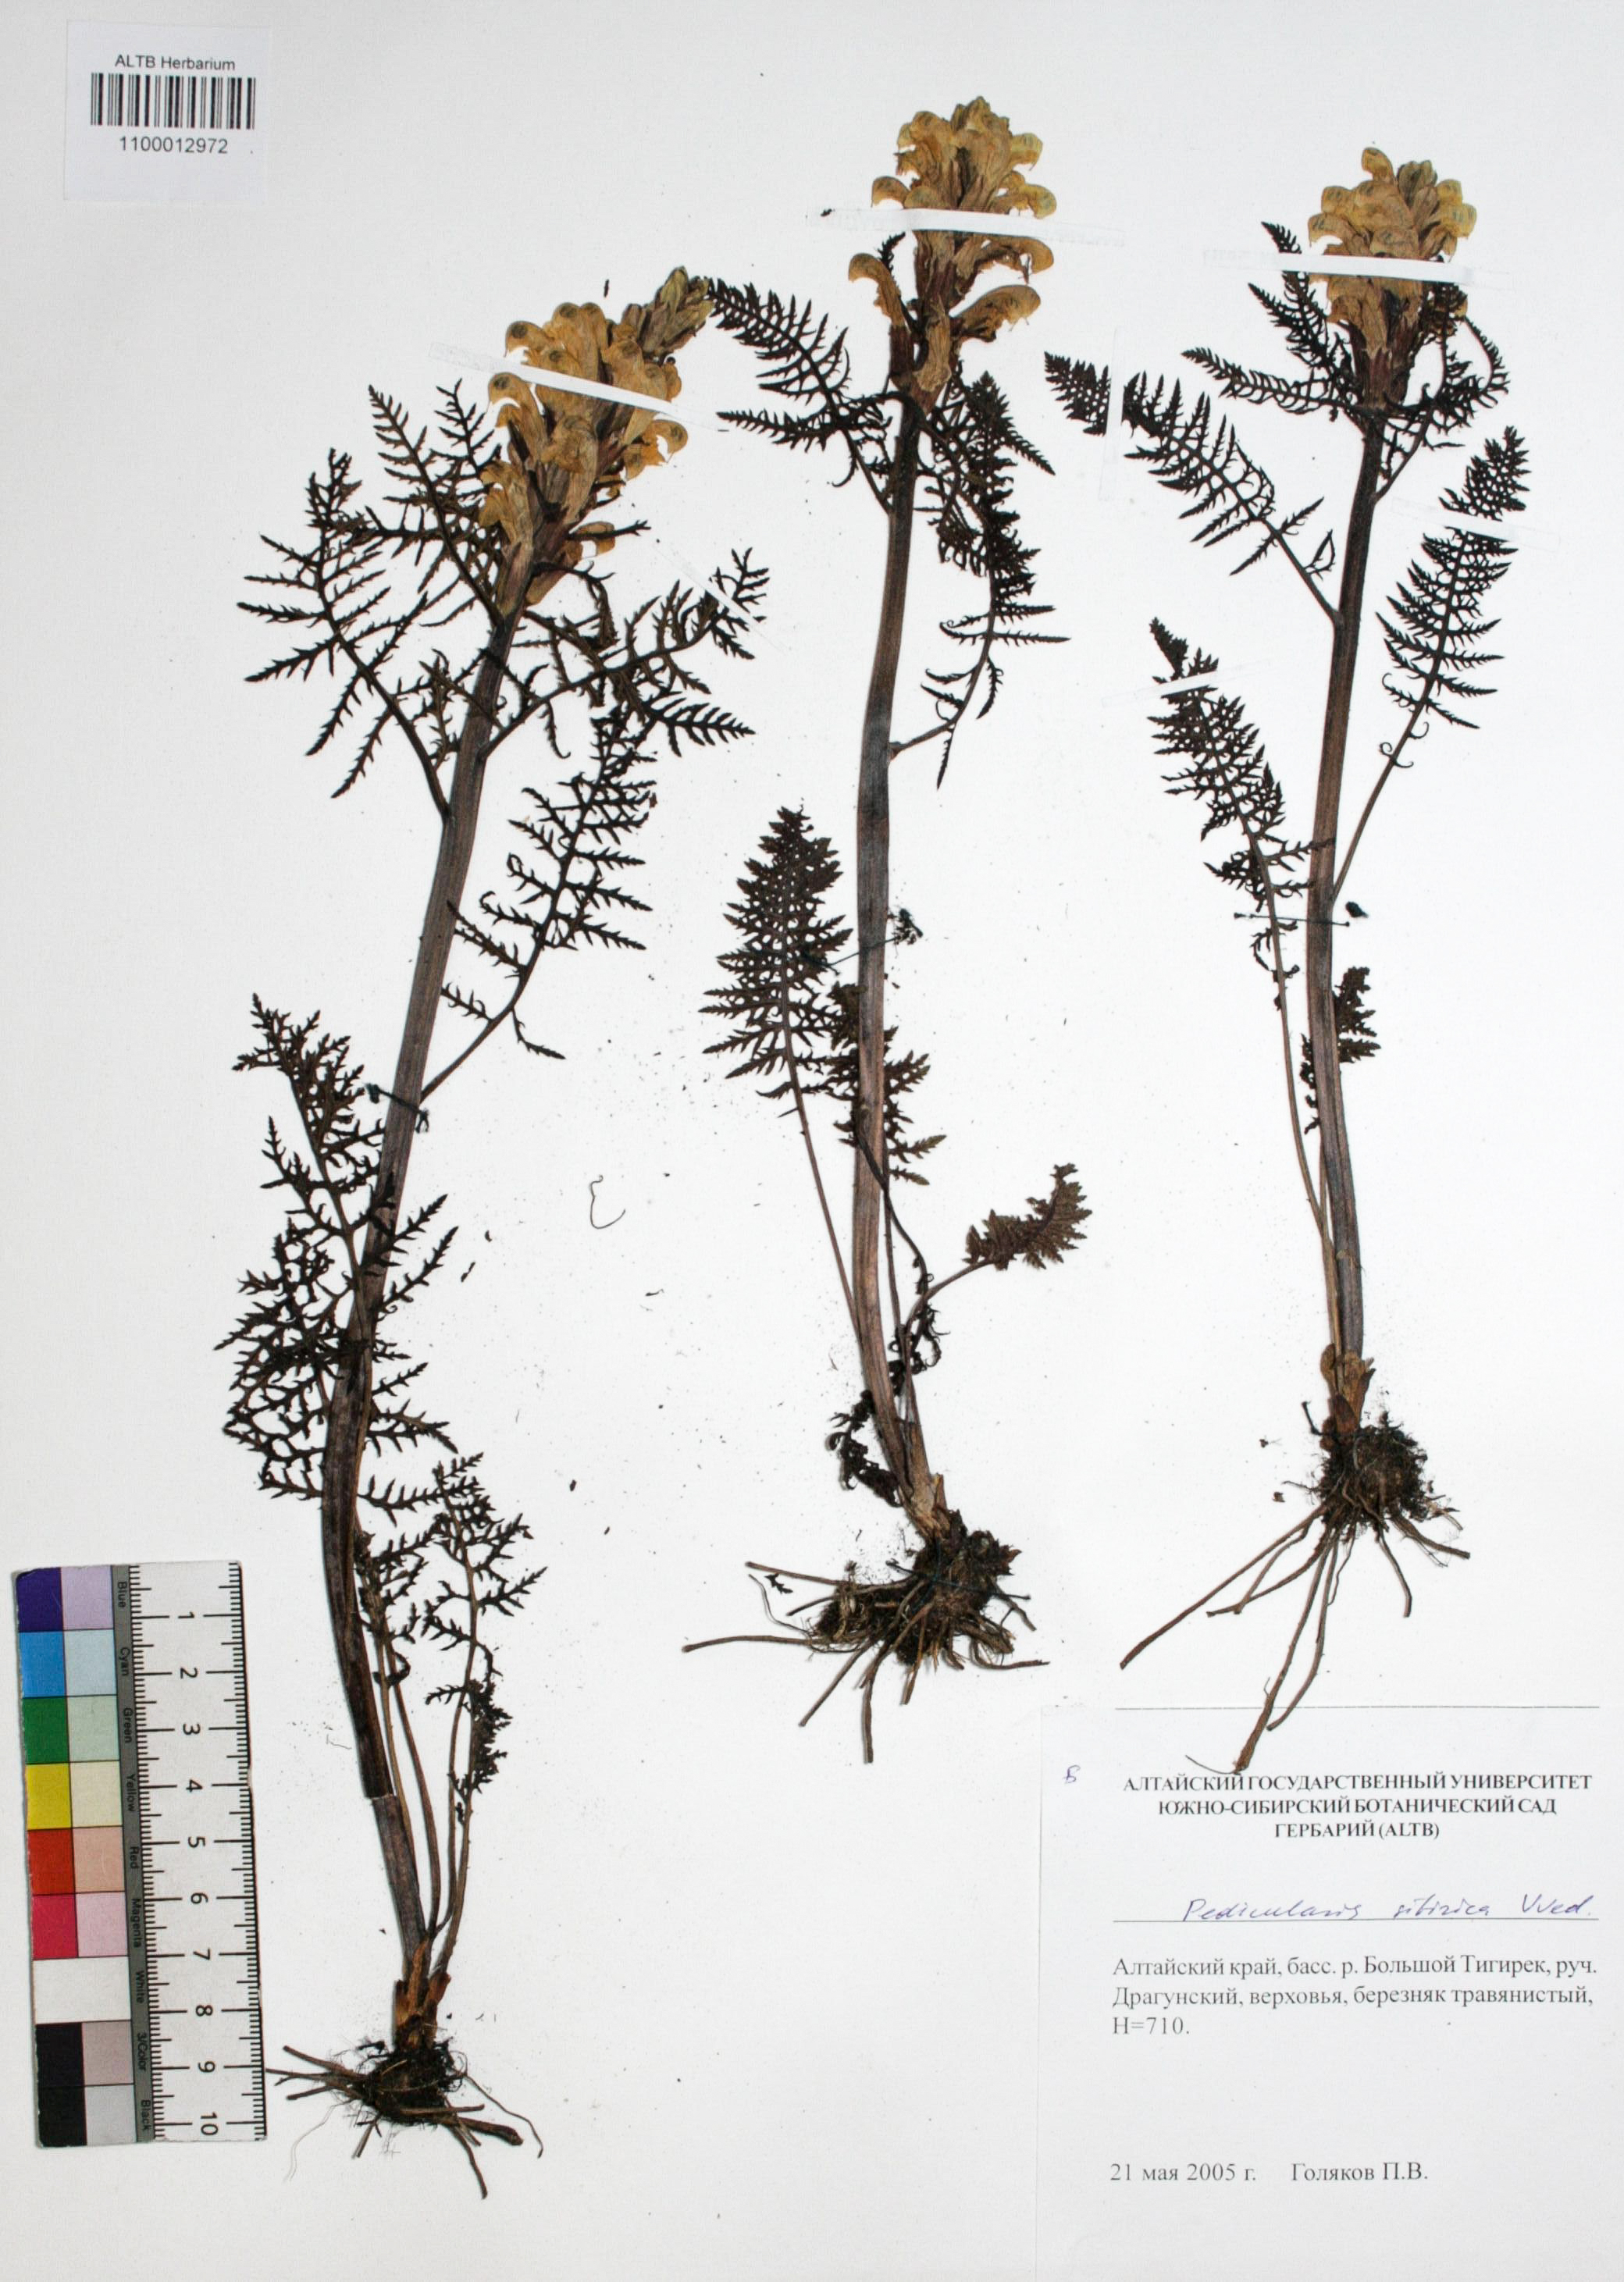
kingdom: Plantae
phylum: Tracheophyta
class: Magnoliopsida
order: Lamiales
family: Orobanchaceae
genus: Pedicularis
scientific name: Pedicularis sibirica
